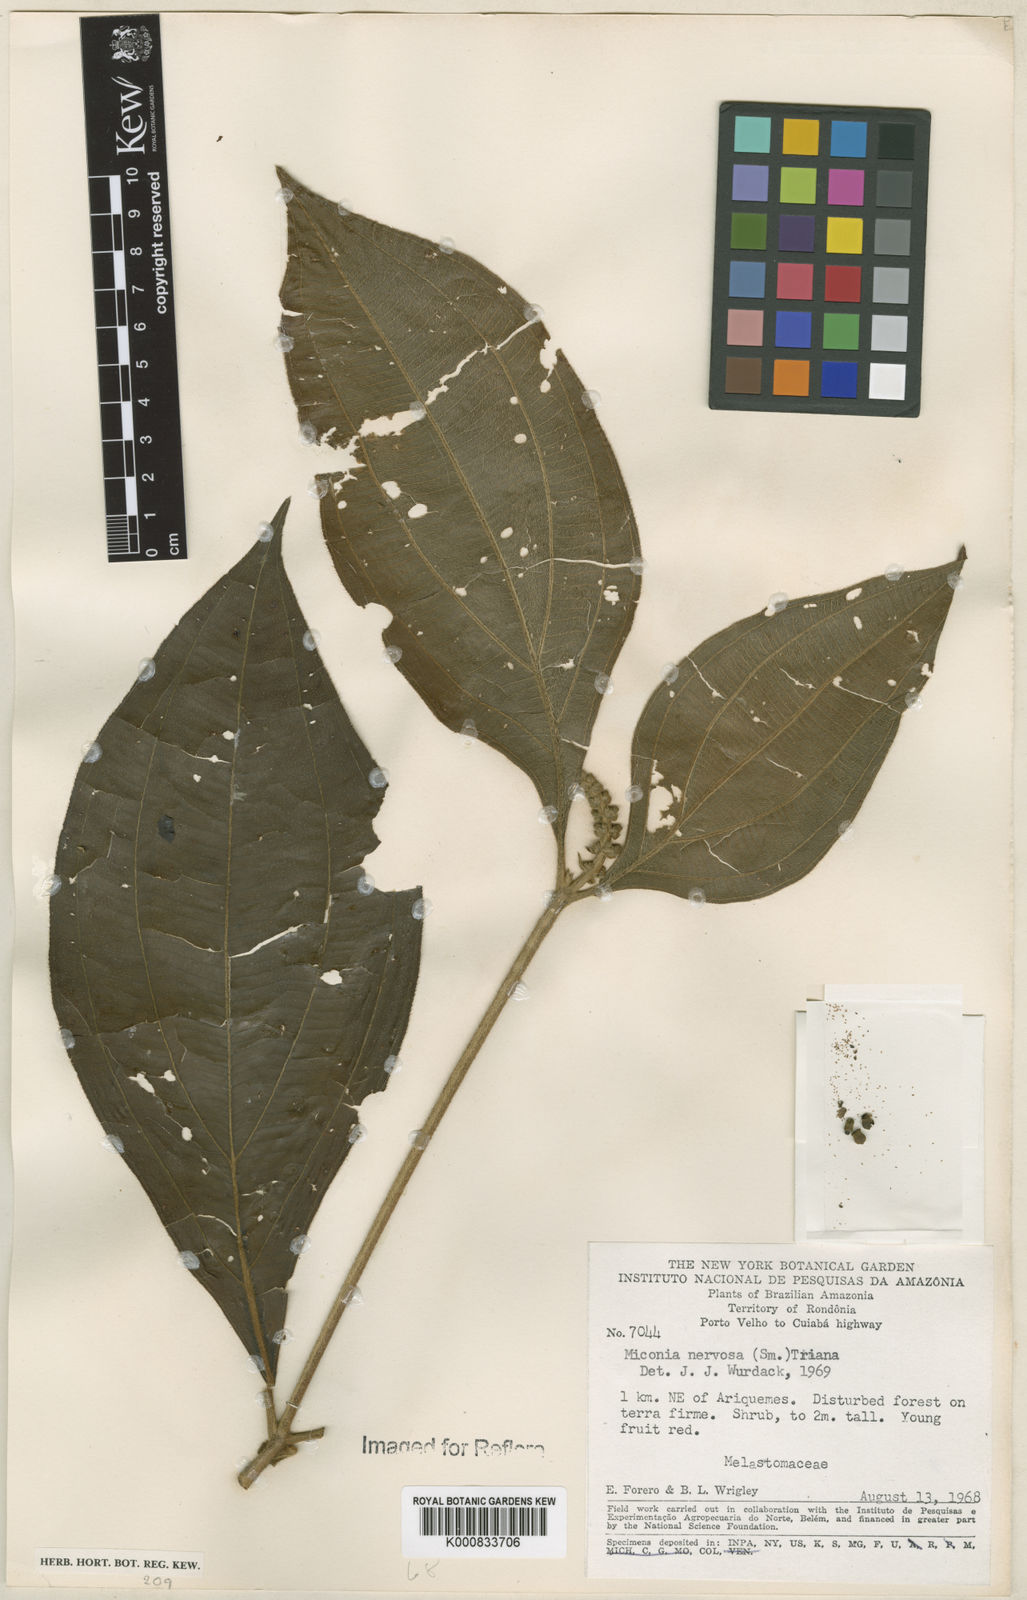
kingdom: Plantae
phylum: Tracheophyta
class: Magnoliopsida
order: Myrtales
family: Melastomataceae
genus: Miconia
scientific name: Miconia nervosa
